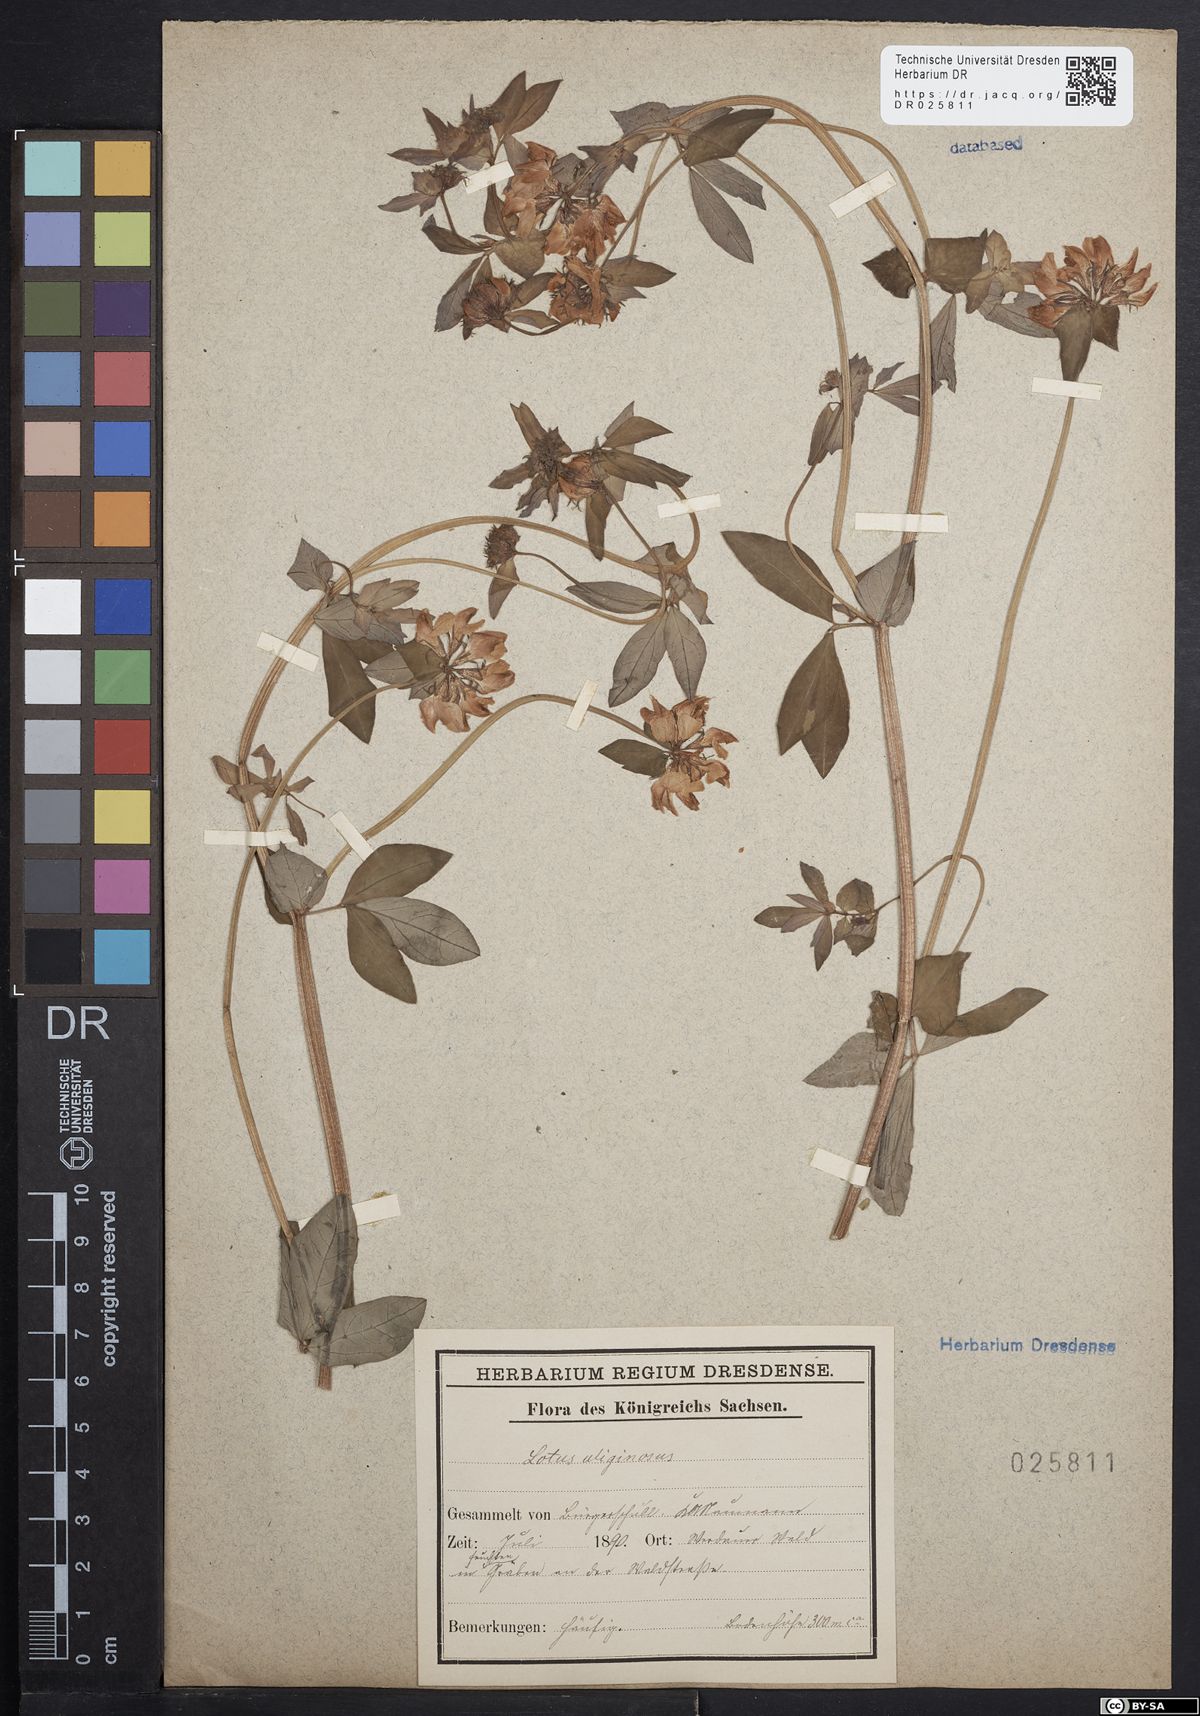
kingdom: Plantae
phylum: Tracheophyta
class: Magnoliopsida
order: Fabales
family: Fabaceae
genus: Lotus
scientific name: Lotus pedunculatus
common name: Greater birdsfoot-trefoil
